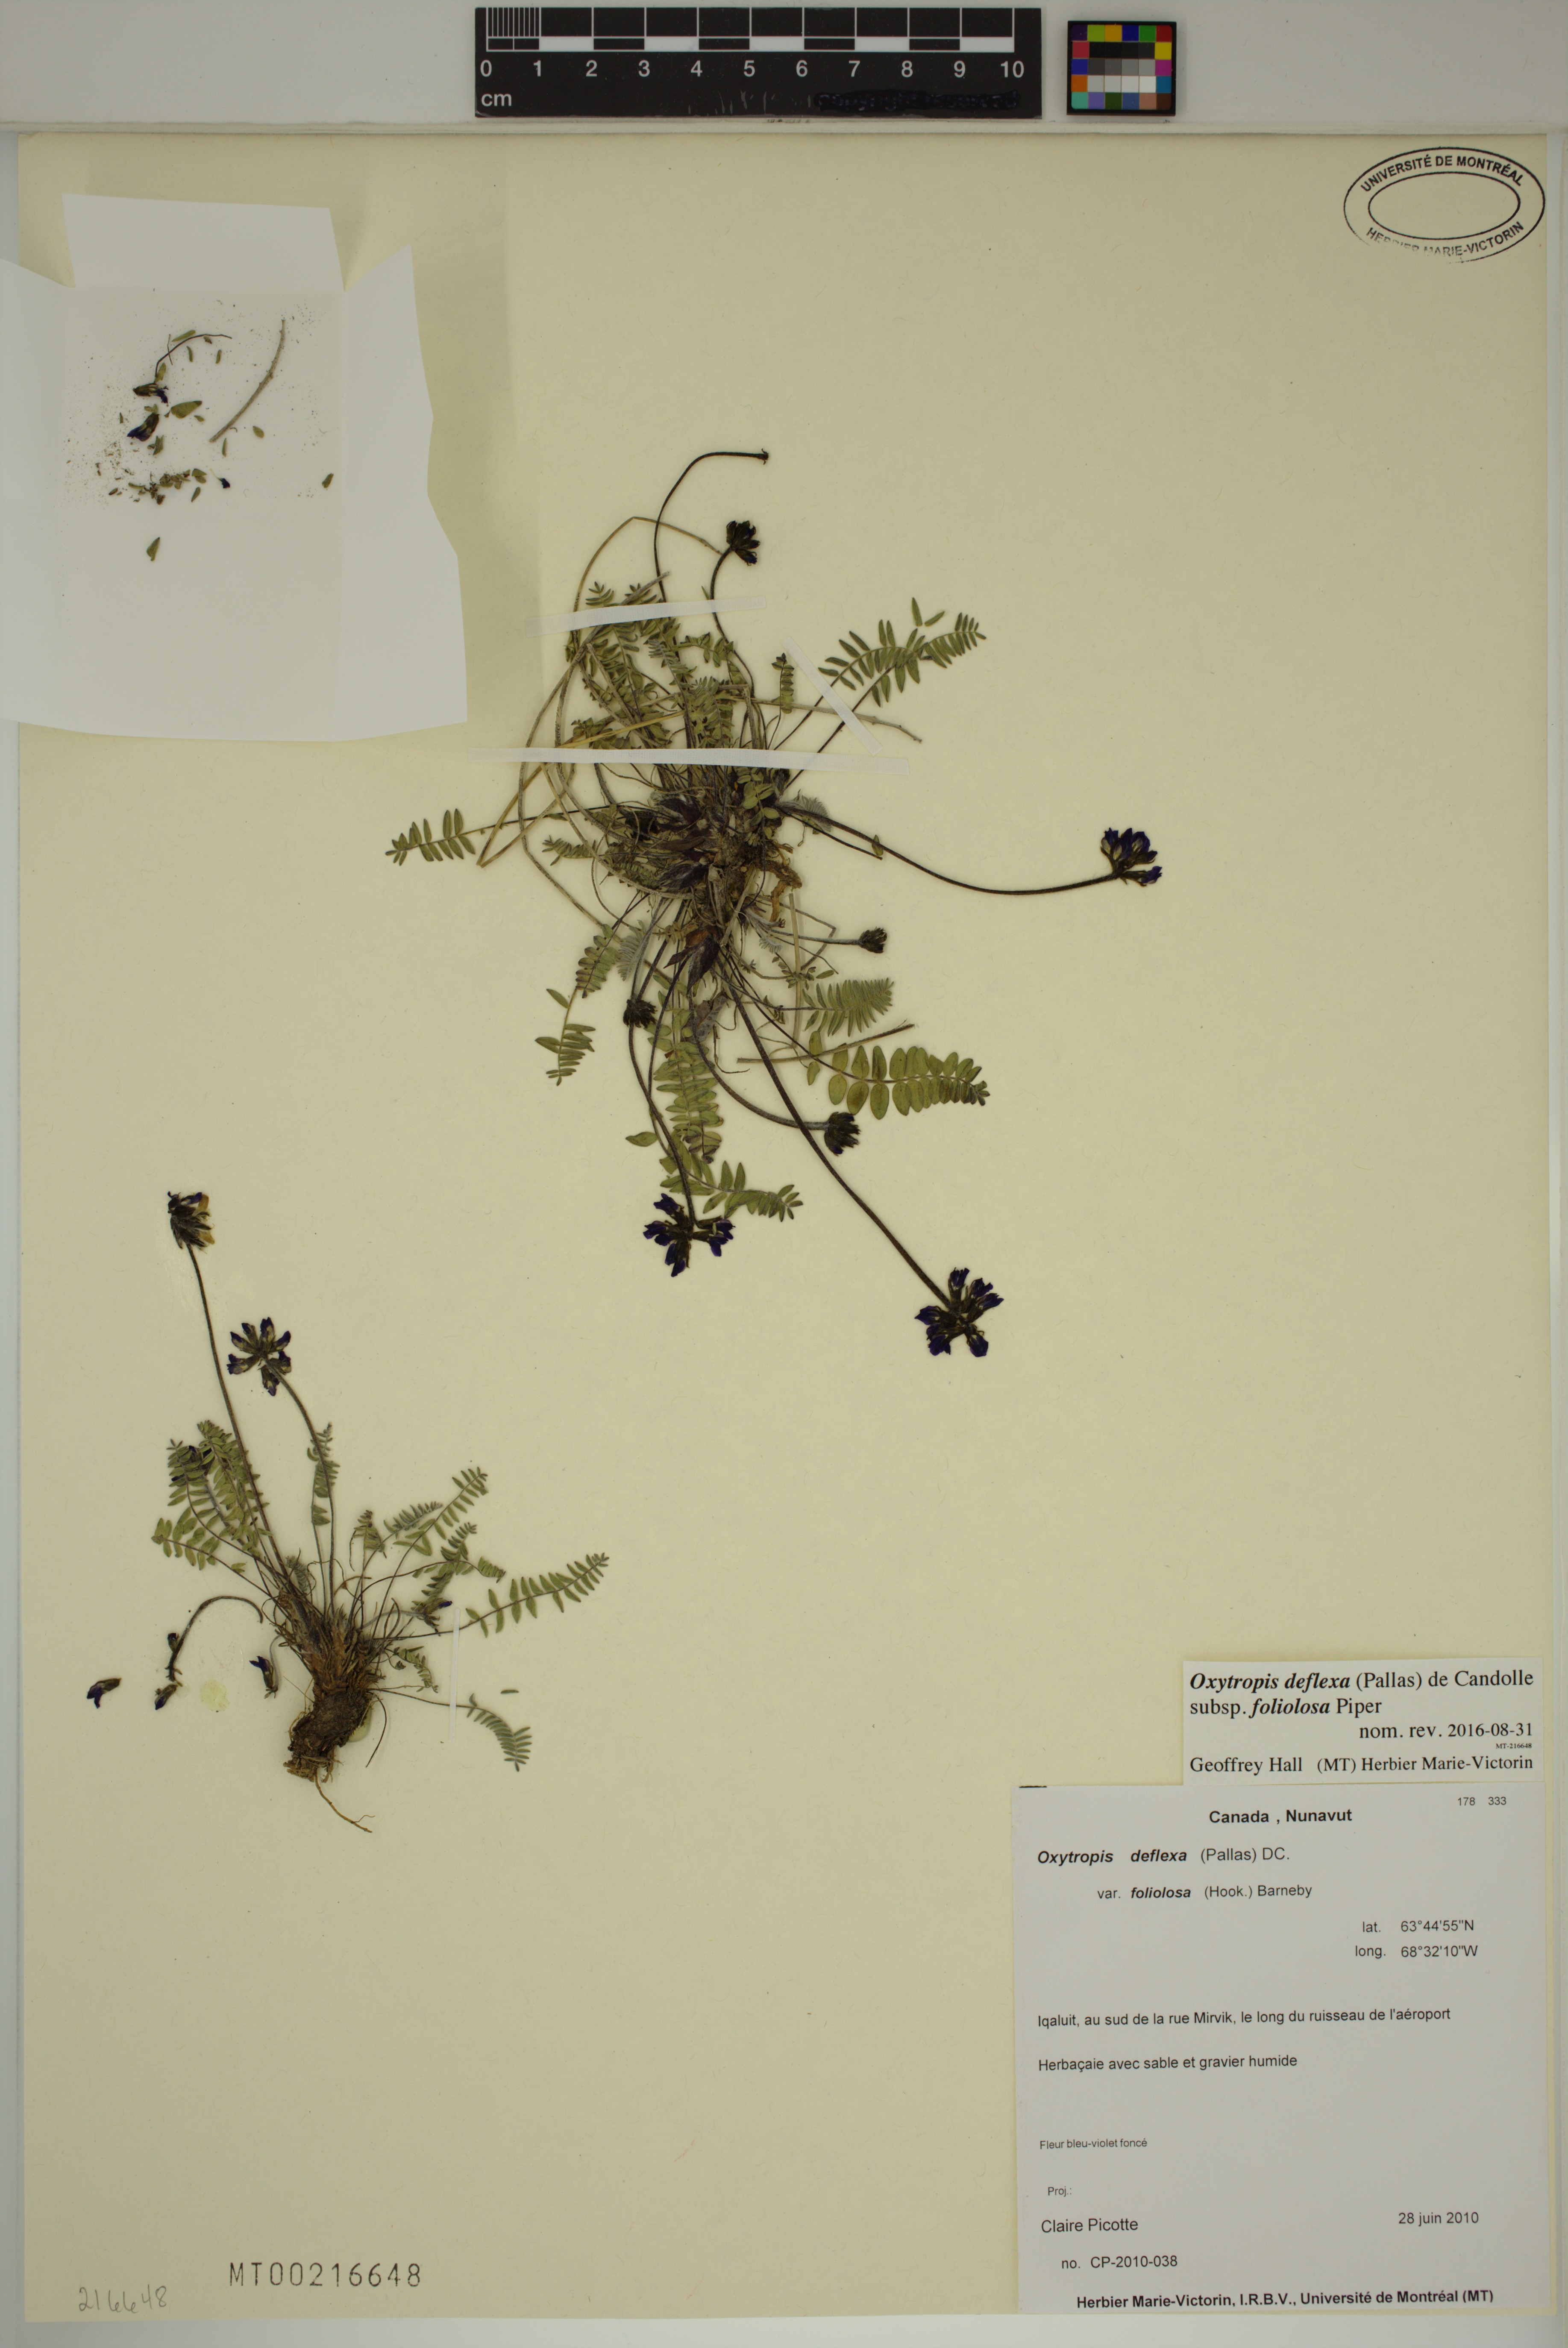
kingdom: Plantae
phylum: Tracheophyta
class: Magnoliopsida
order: Fabales
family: Fabaceae
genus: Oxytropis
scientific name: Oxytropis deflexa
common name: Stemmed oxytrope
